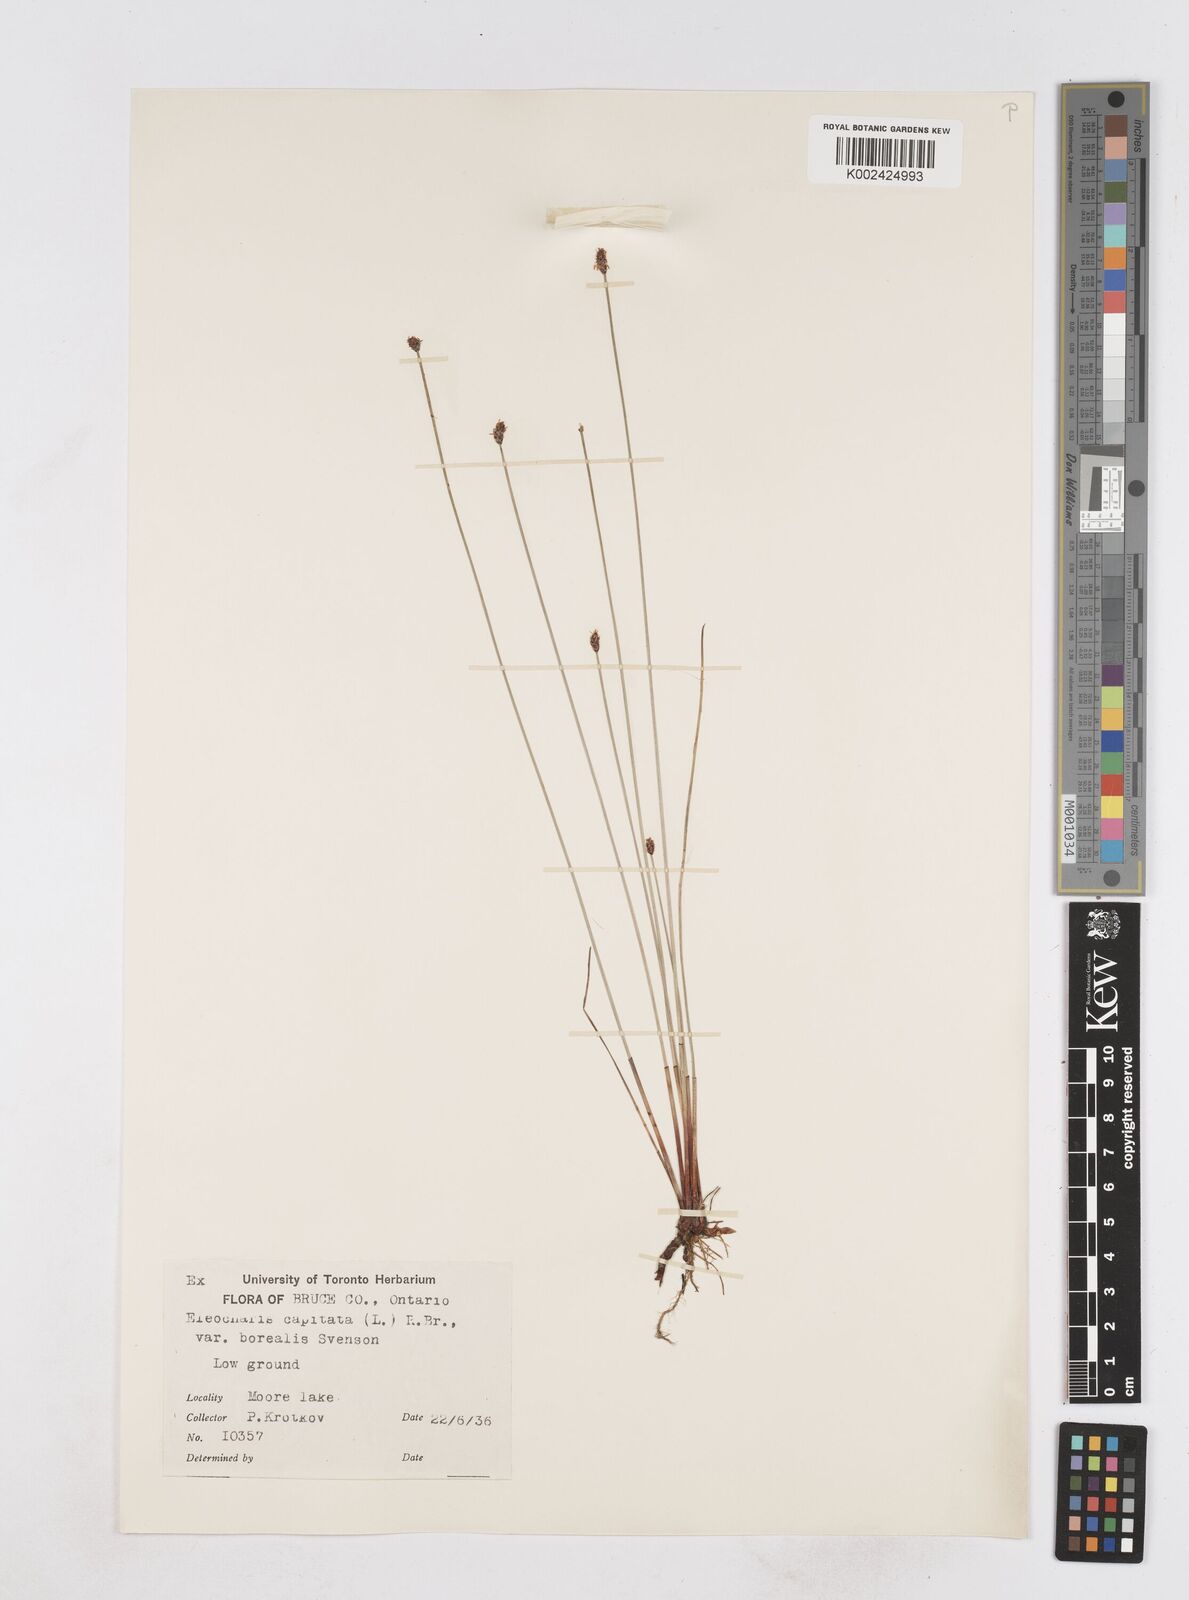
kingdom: Plantae
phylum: Tracheophyta
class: Liliopsida
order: Poales
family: Cyperaceae
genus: Eleocharis
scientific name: Eleocharis geniculata
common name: Canada spikesedge
